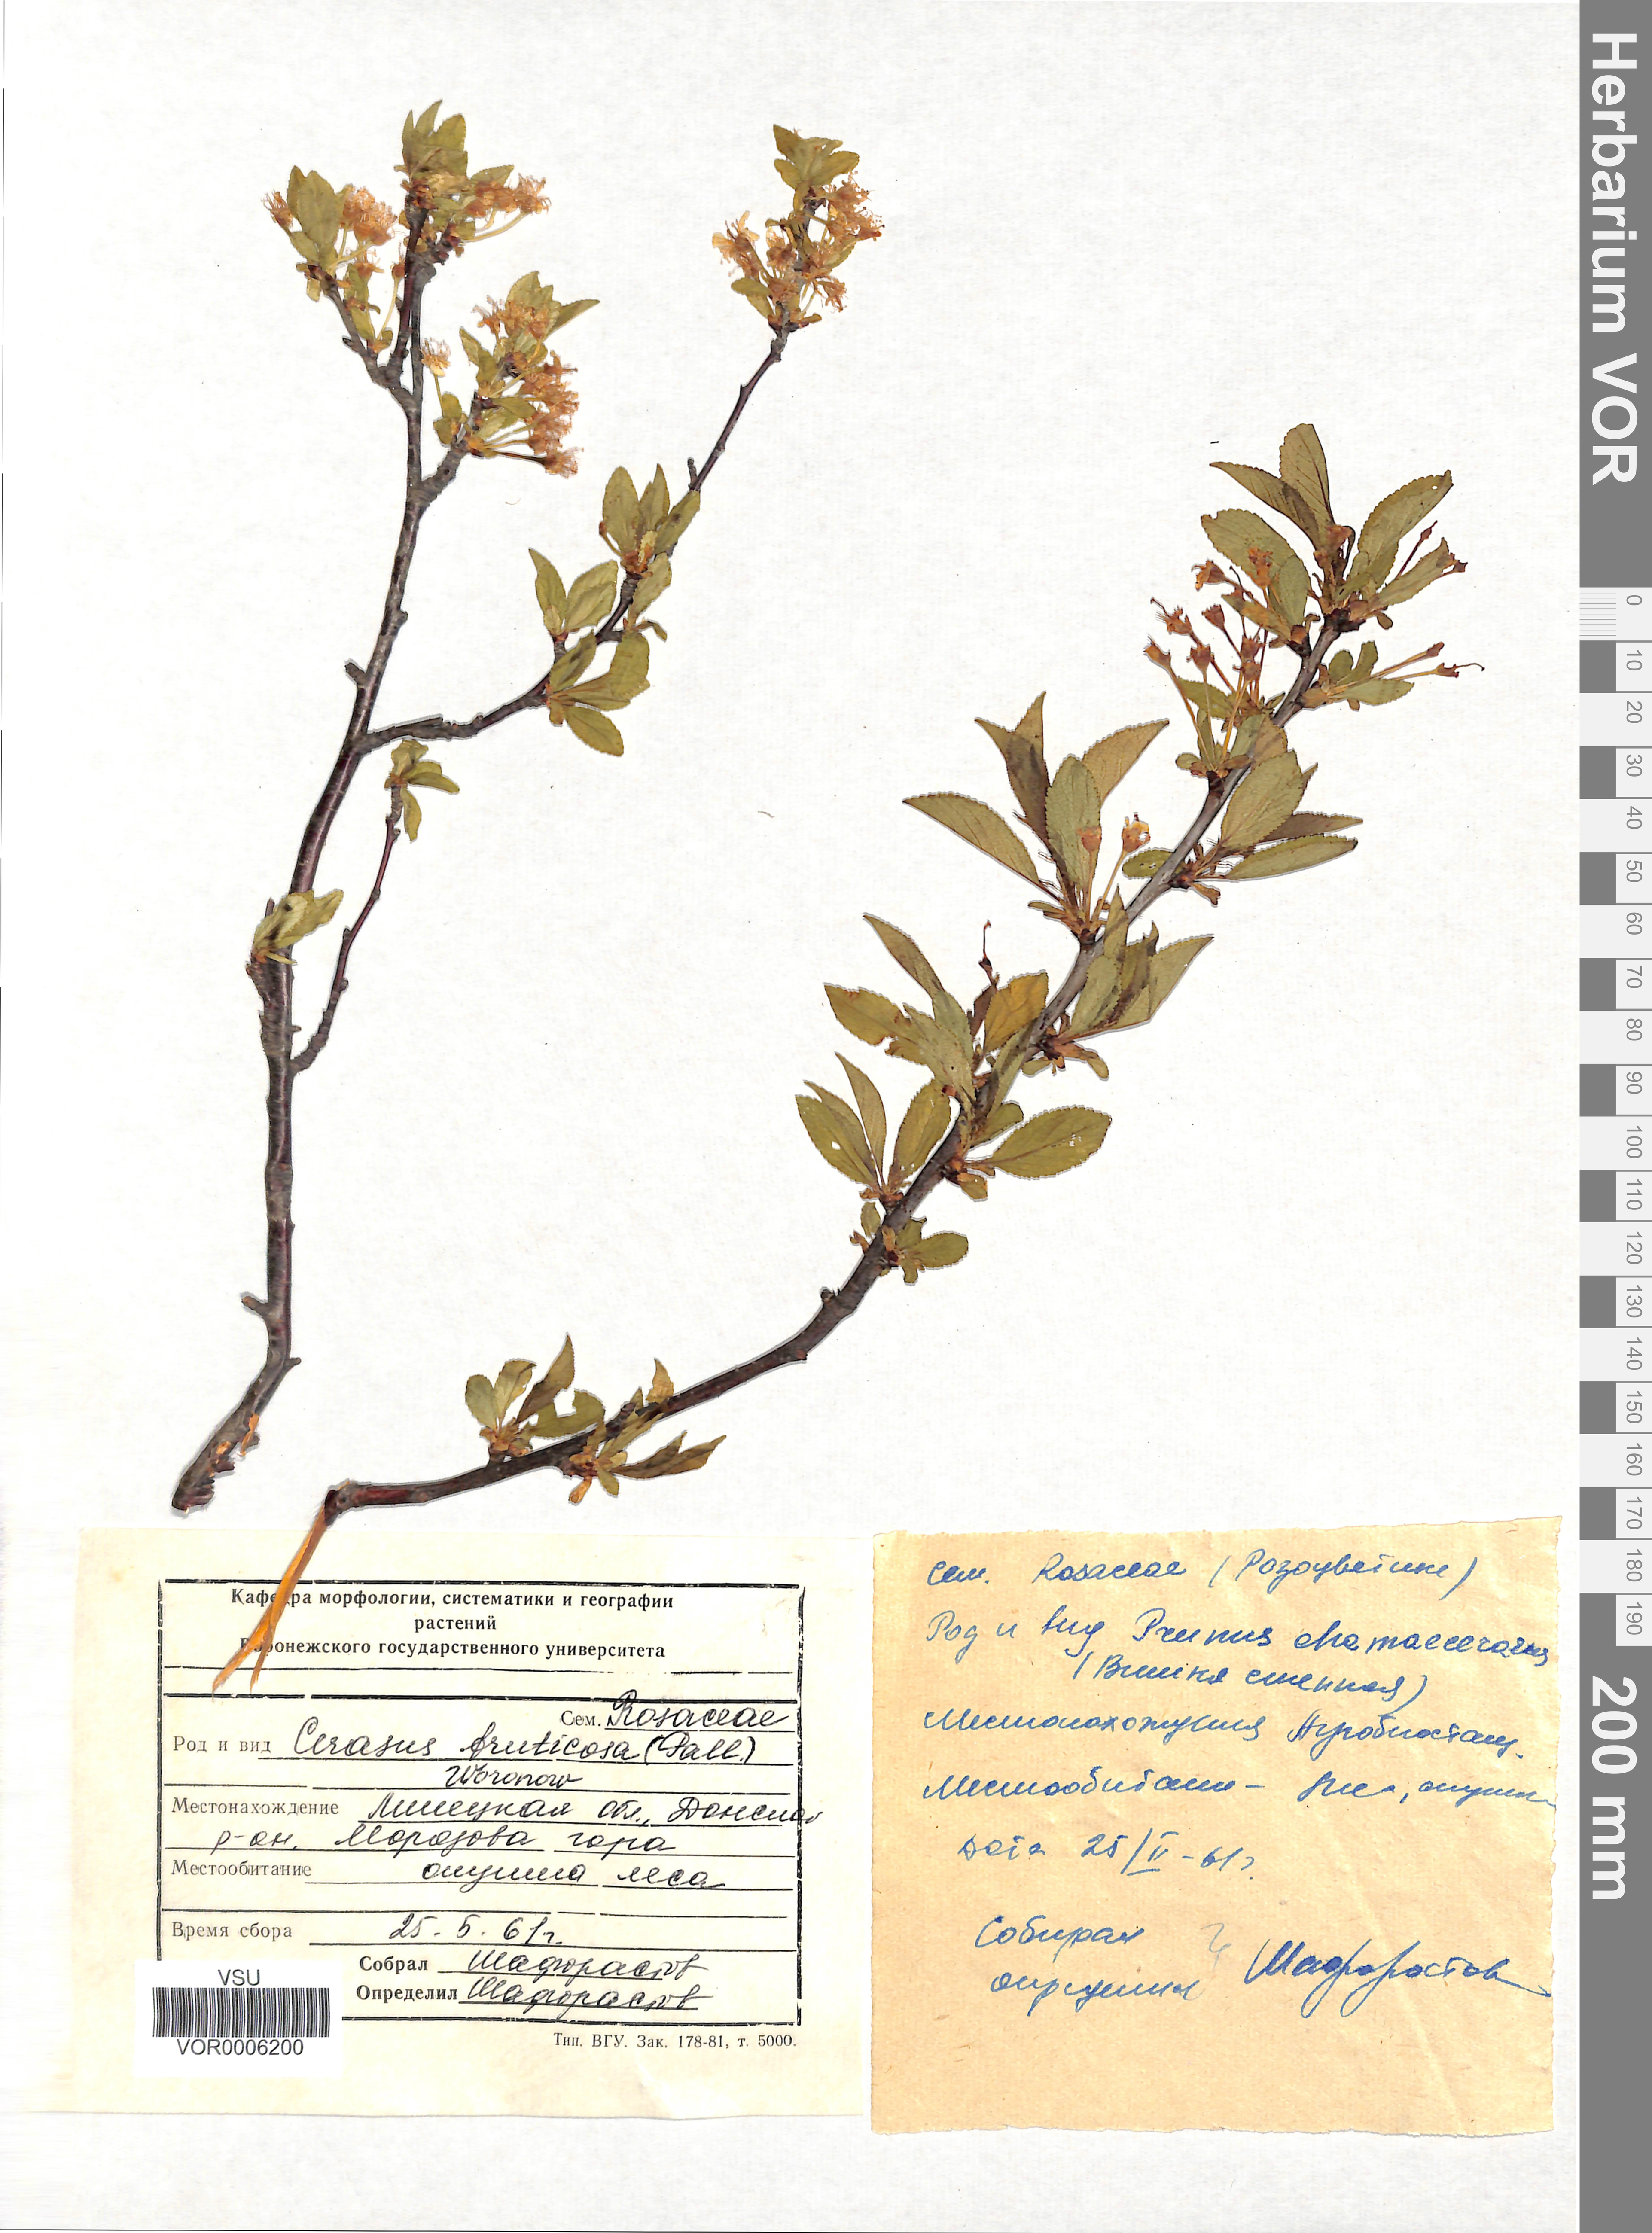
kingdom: Plantae
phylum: Tracheophyta
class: Magnoliopsida
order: Rosales
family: Rosaceae
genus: Prunus
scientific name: Prunus fruticosa
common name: European dwarf cherry
